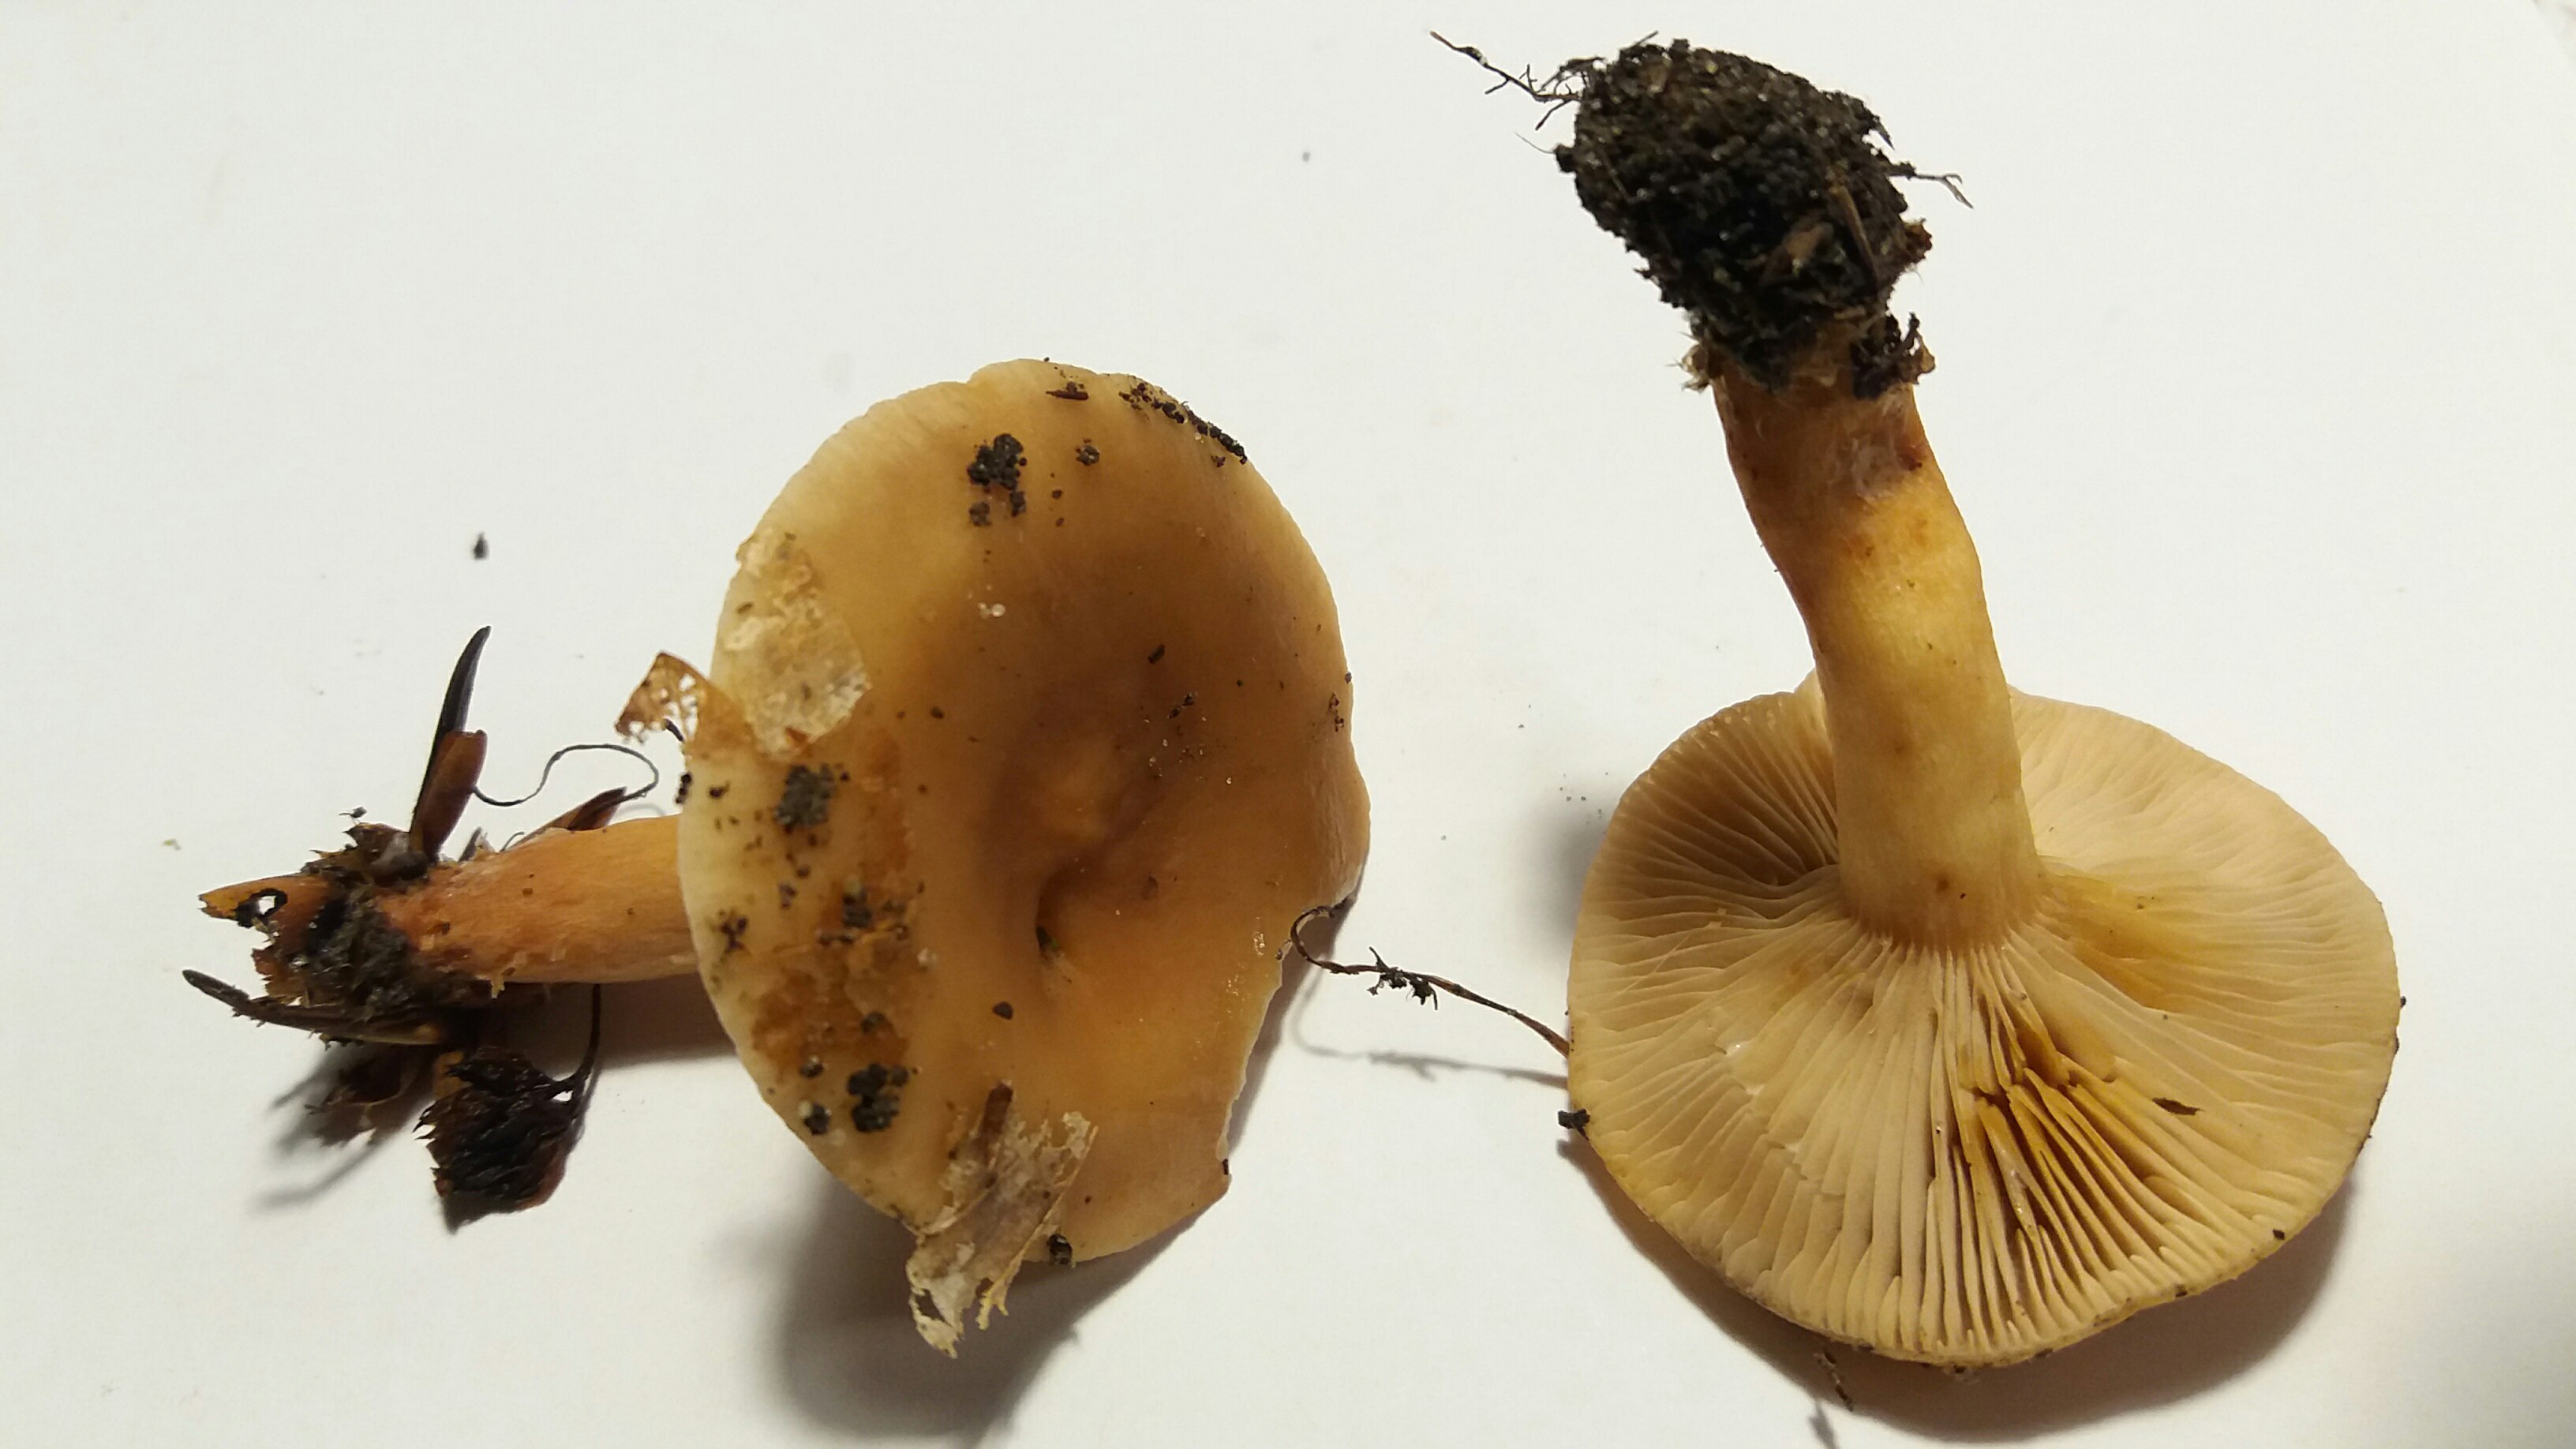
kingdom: Fungi
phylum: Basidiomycota
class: Agaricomycetes
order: Russulales
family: Russulaceae
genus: Lactarius
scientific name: Lactarius subdulcis
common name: sødlig mælkehat
